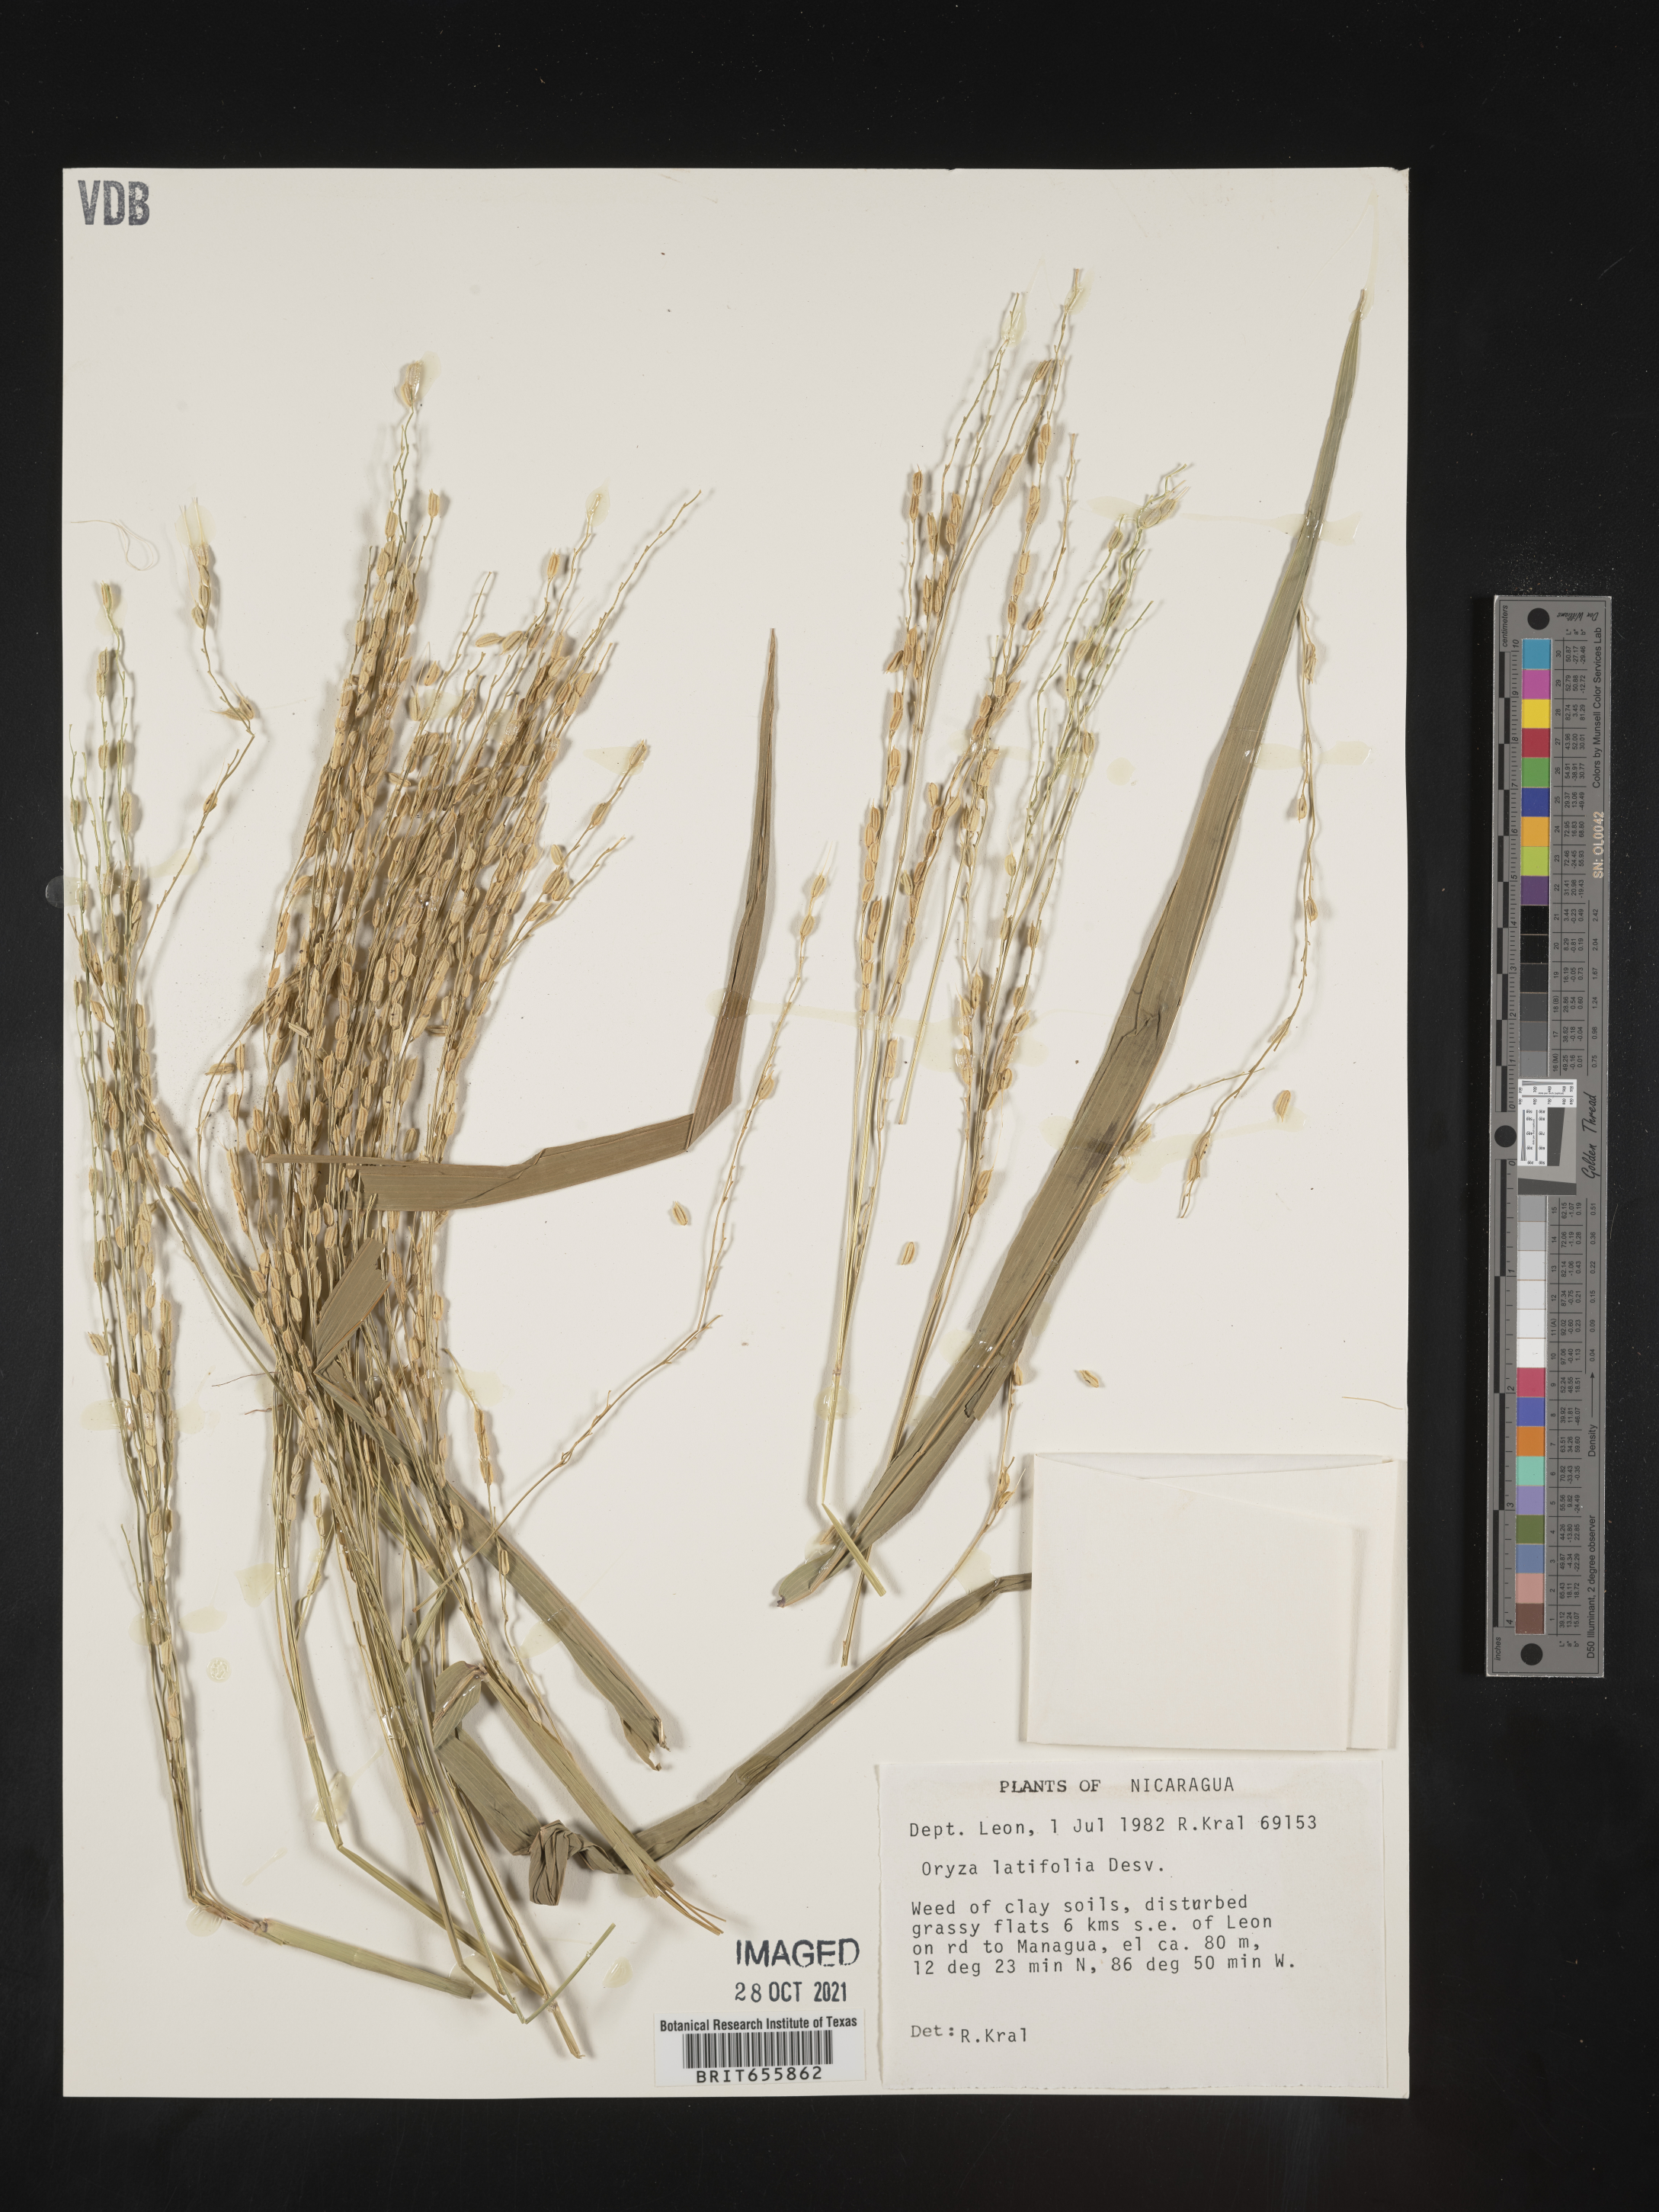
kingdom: Plantae
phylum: Tracheophyta
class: Liliopsida
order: Poales
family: Poaceae
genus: Oryza
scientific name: Oryza
